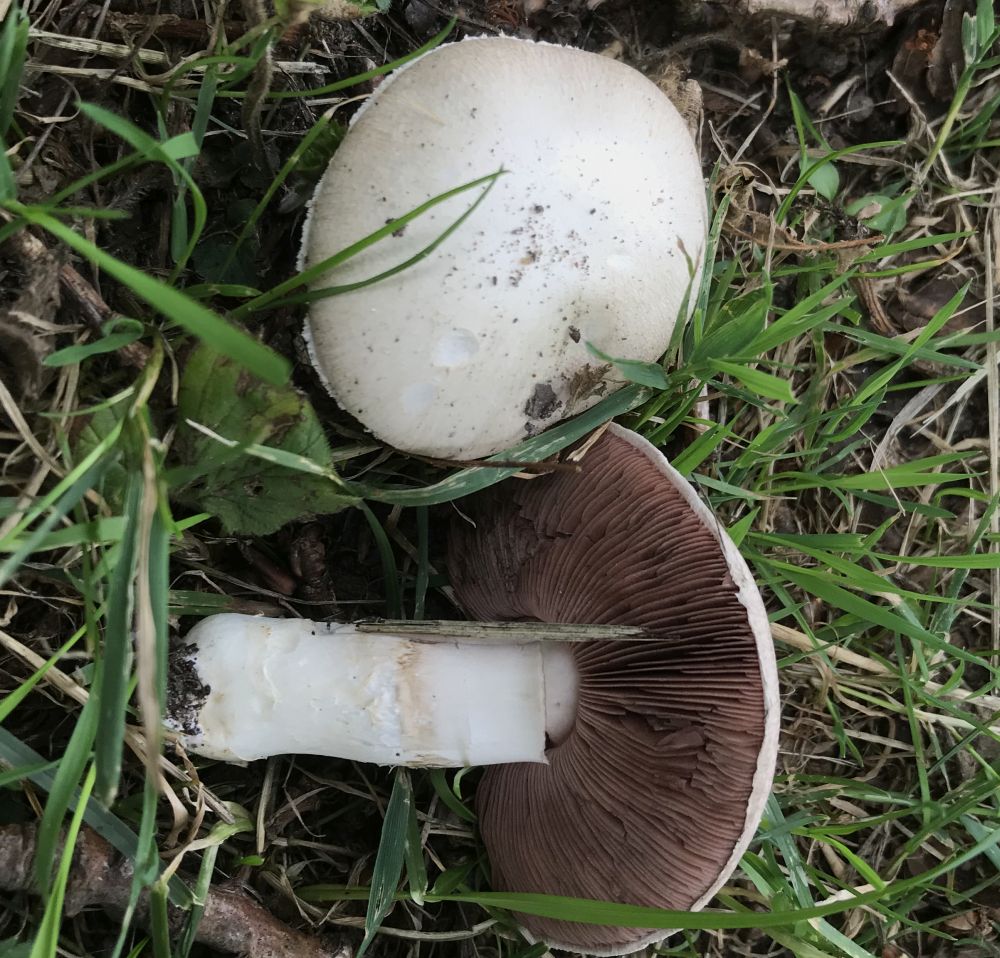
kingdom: Fungi
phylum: Basidiomycota
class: Agaricomycetes
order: Agaricales
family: Agaricaceae
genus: Agaricus
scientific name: Agaricus campestris
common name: mark-champignon
